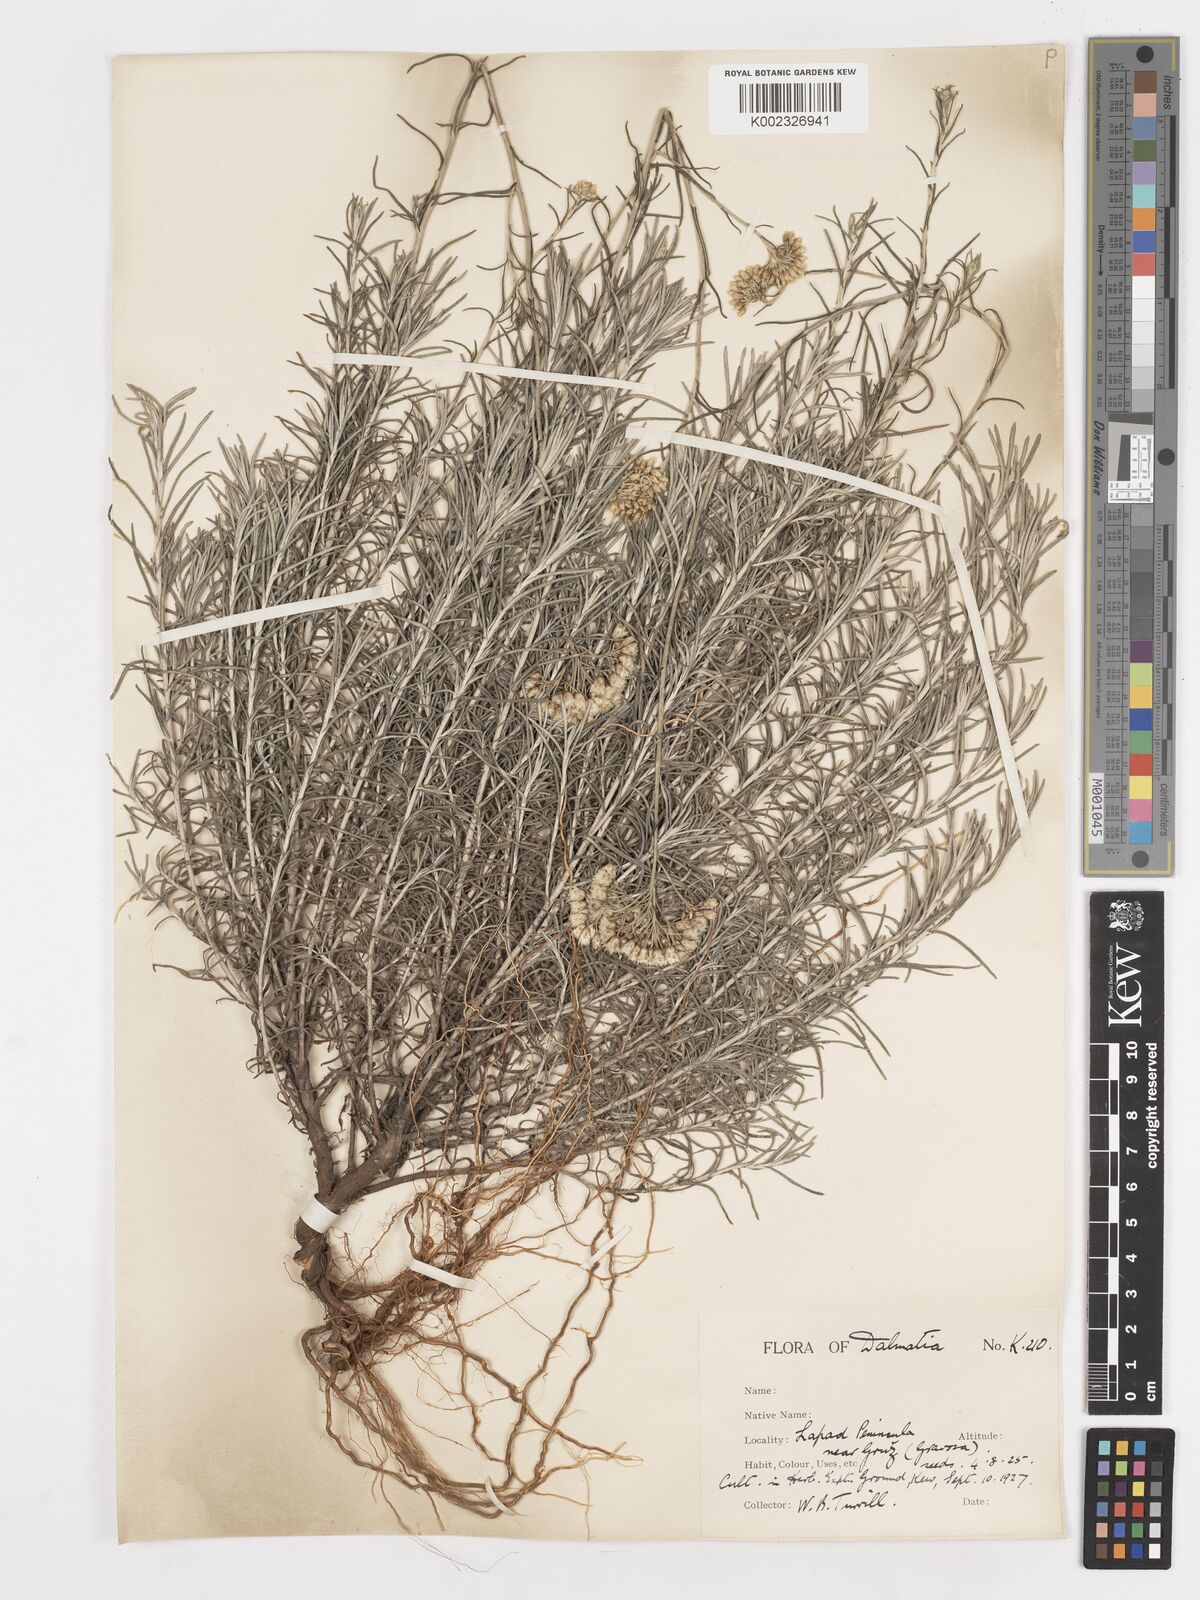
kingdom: Plantae
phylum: Tracheophyta
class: Magnoliopsida
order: Asterales
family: Asteraceae
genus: Helichrysum
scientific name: Helichrysum italicum
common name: Curryplant
